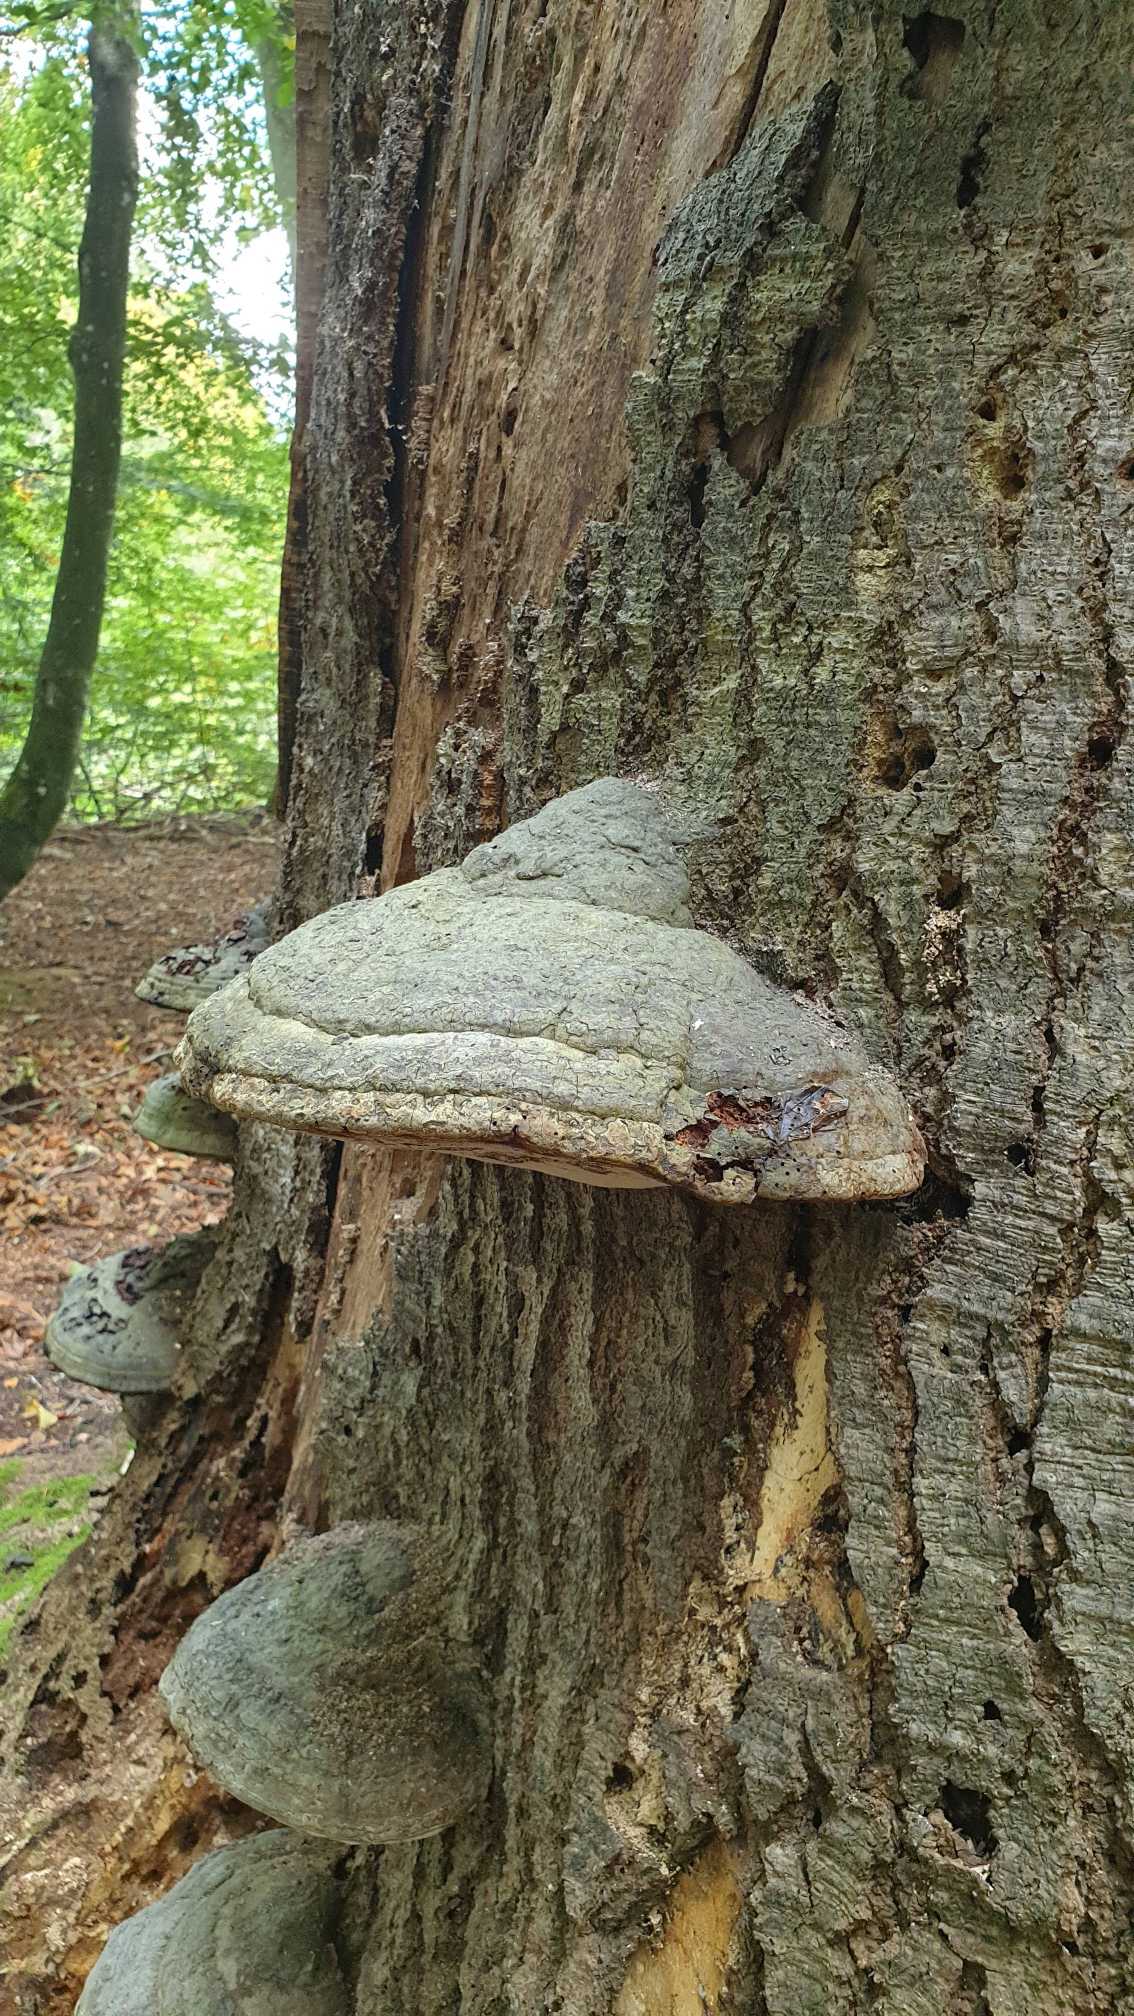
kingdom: Fungi
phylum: Basidiomycota
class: Agaricomycetes
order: Polyporales
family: Polyporaceae
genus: Fomes
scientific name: Fomes fomentarius
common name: Tøndersvamp
